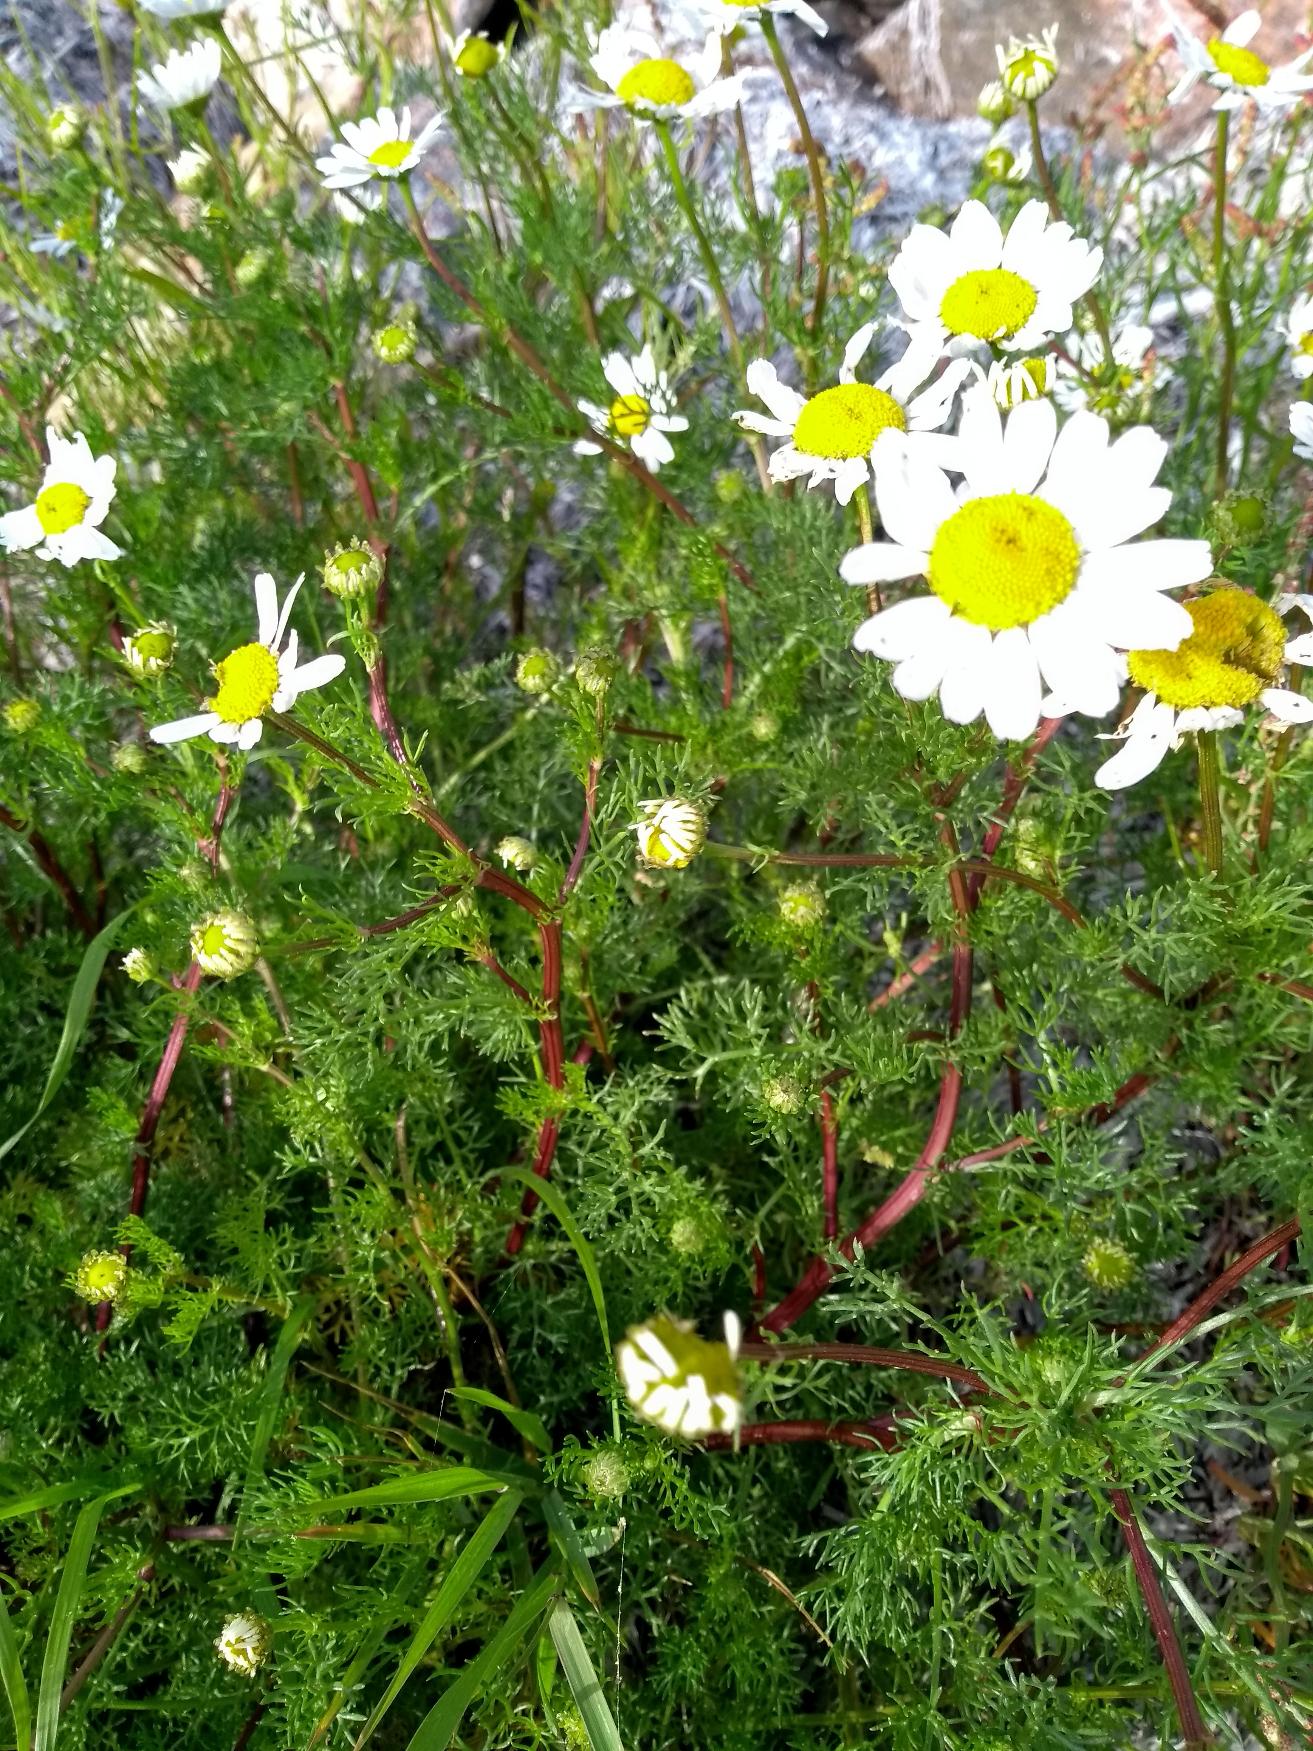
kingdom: Plantae
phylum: Tracheophyta
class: Magnoliopsida
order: Asterales
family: Asteraceae
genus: Tripleurospermum
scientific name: Tripleurospermum maritimum
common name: Strand-kamille
